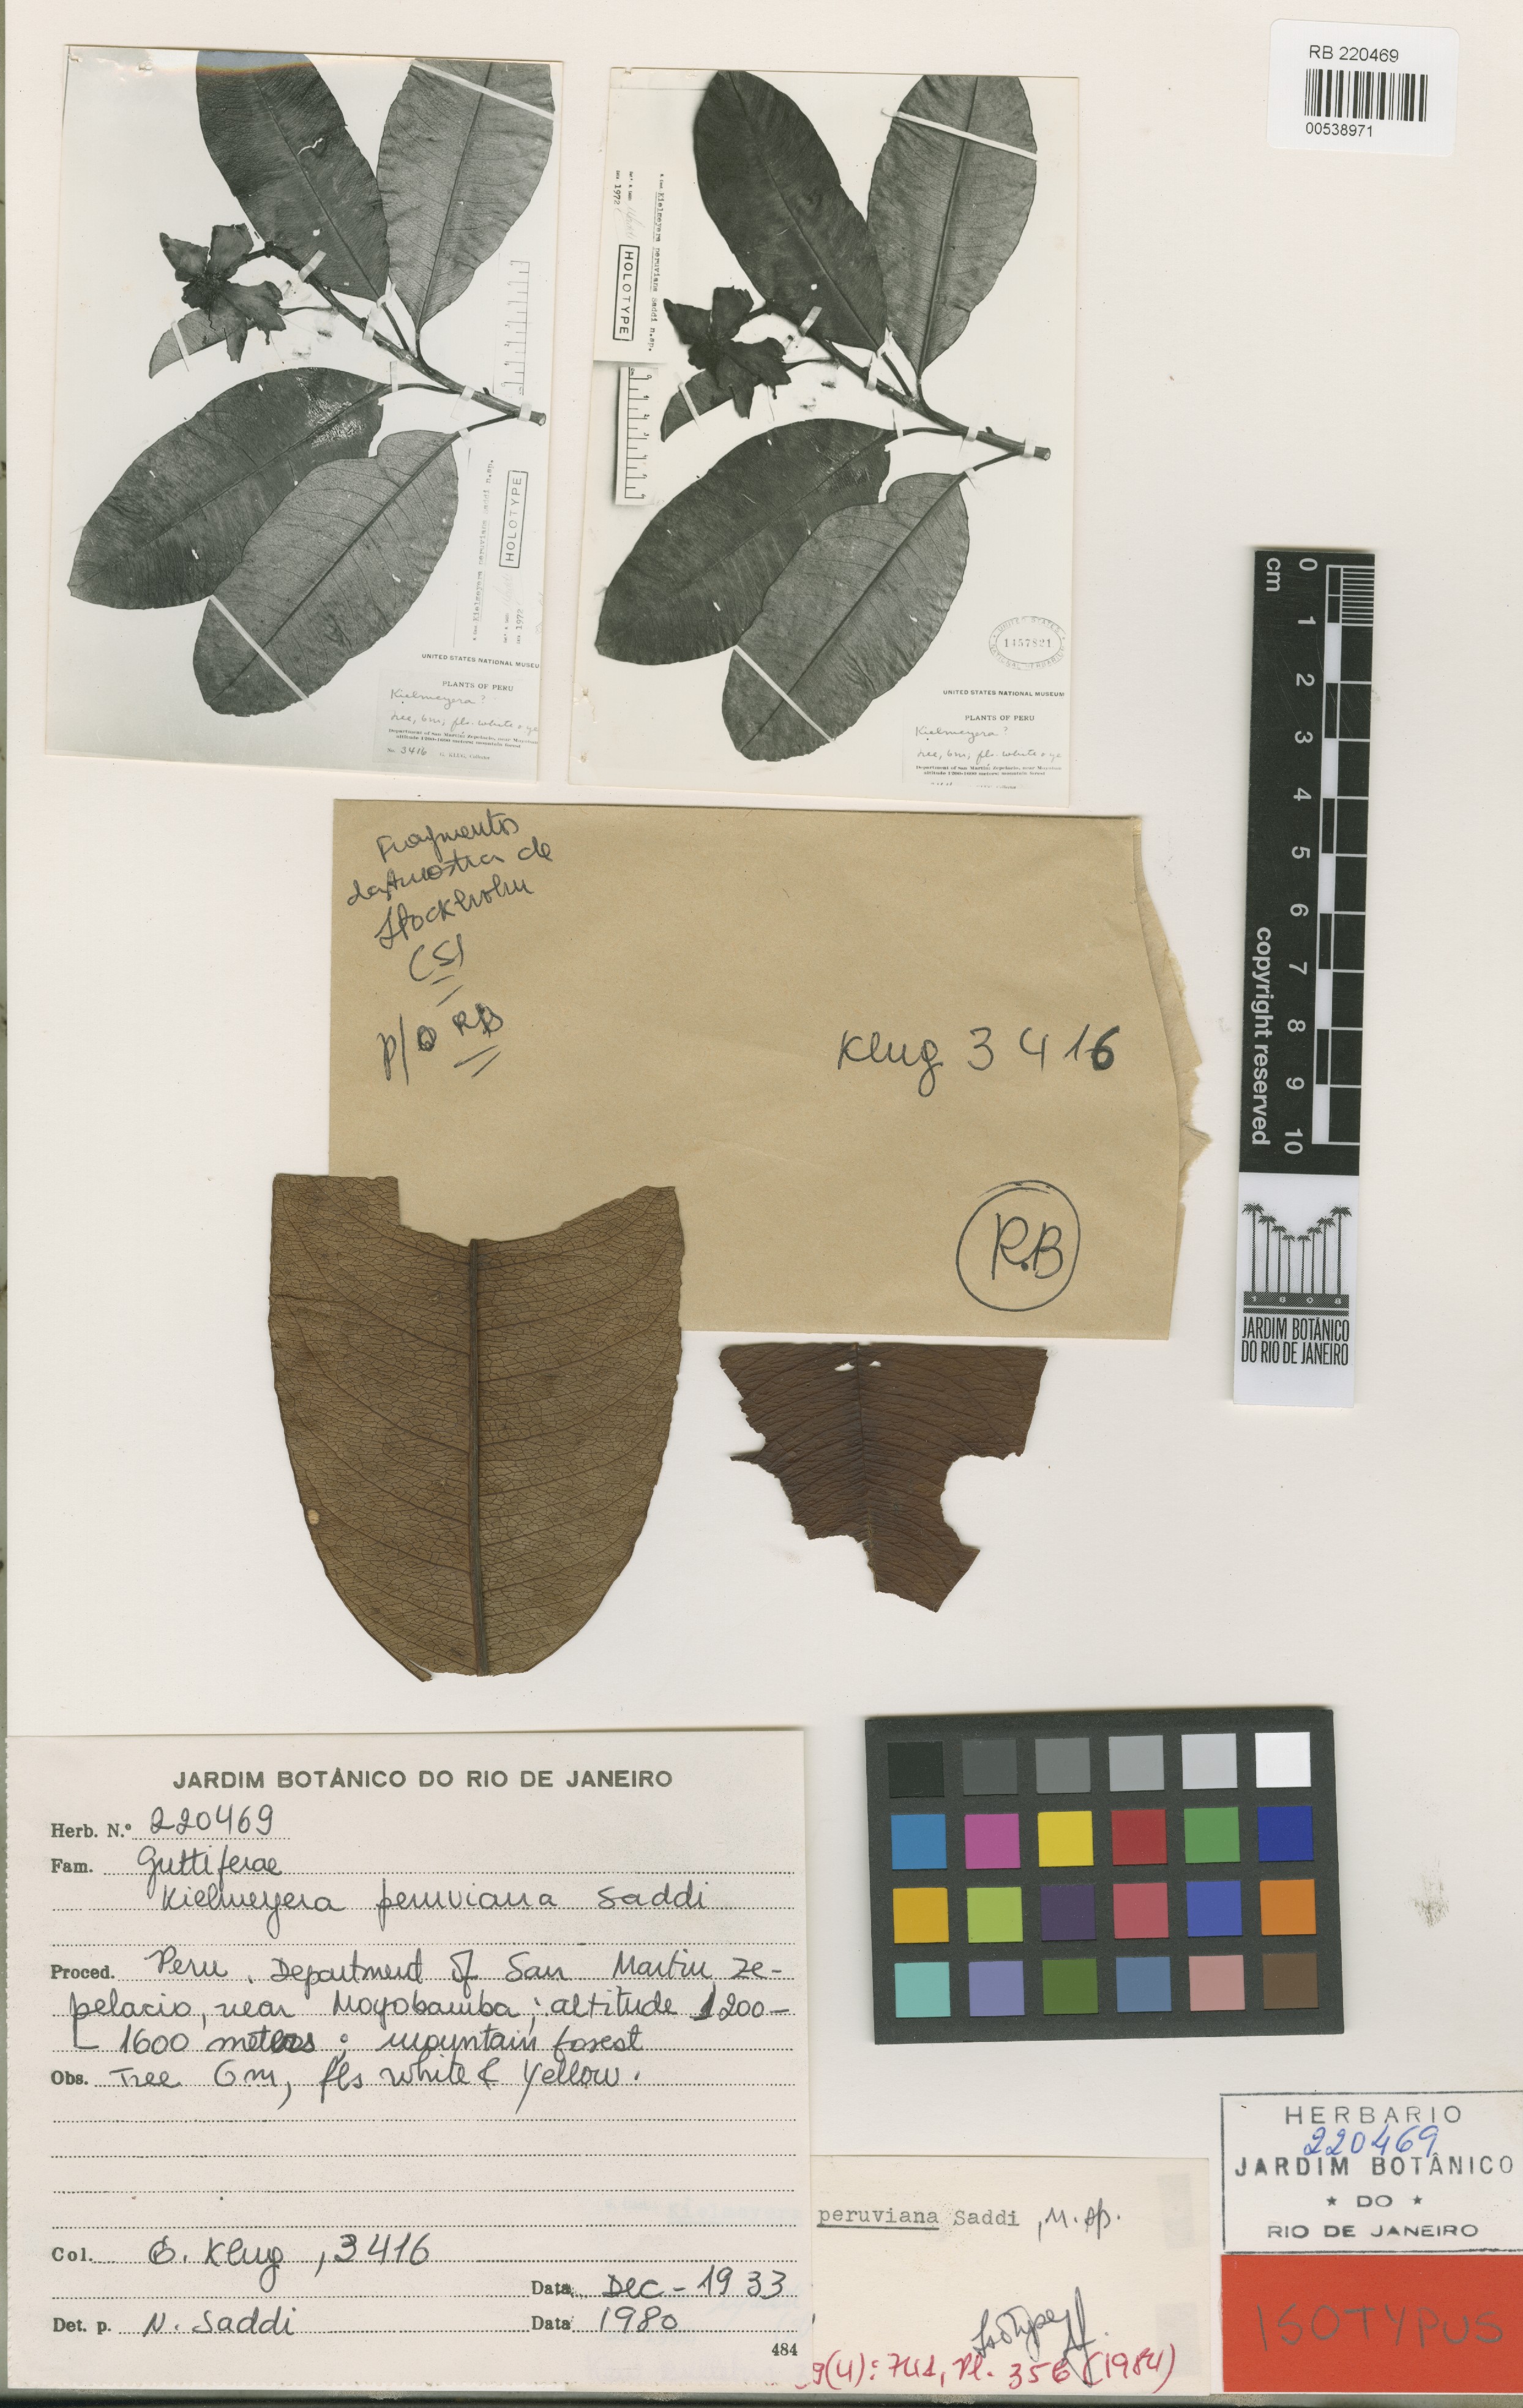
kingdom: Plantae
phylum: Tracheophyta
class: Magnoliopsida
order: Malpighiales
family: Calophyllaceae
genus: Kielmeyera
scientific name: Kielmeyera peruviana
